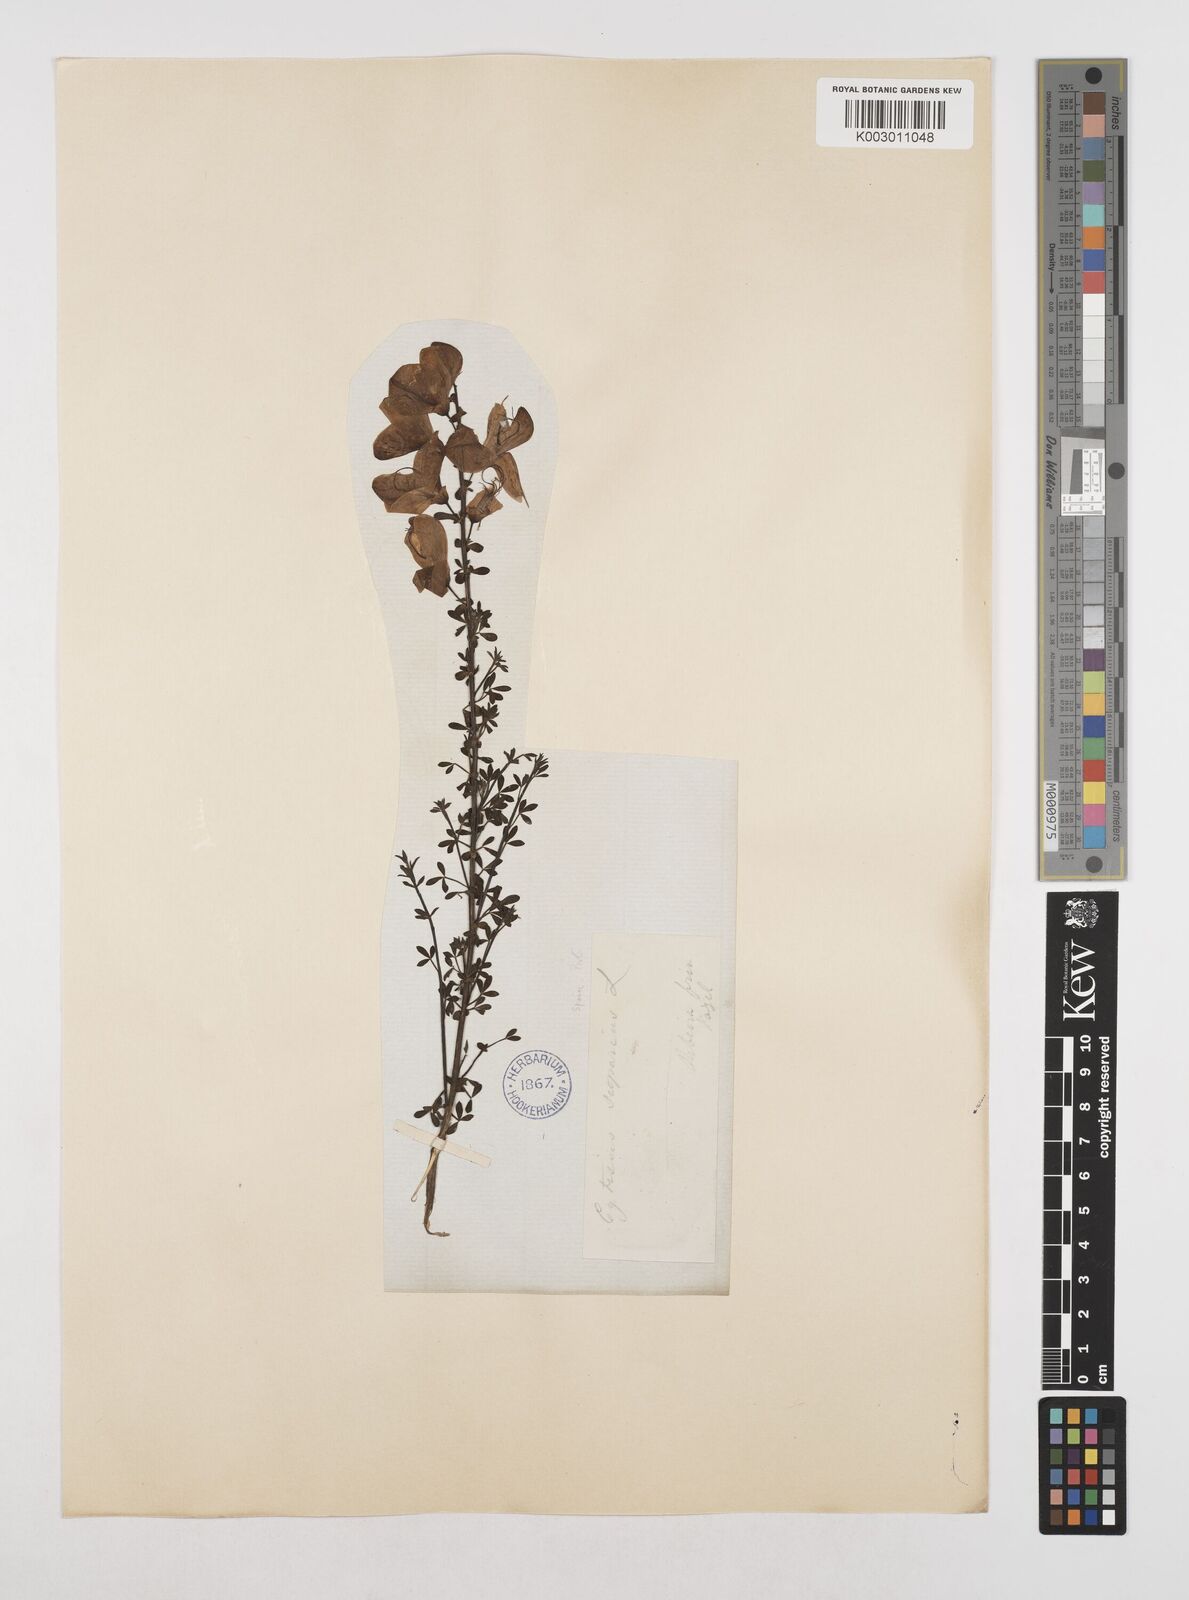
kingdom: Plantae
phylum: Tracheophyta
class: Magnoliopsida
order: Fabales
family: Fabaceae
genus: Cytisus
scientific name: Cytisus scoparius
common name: Scotch broom
